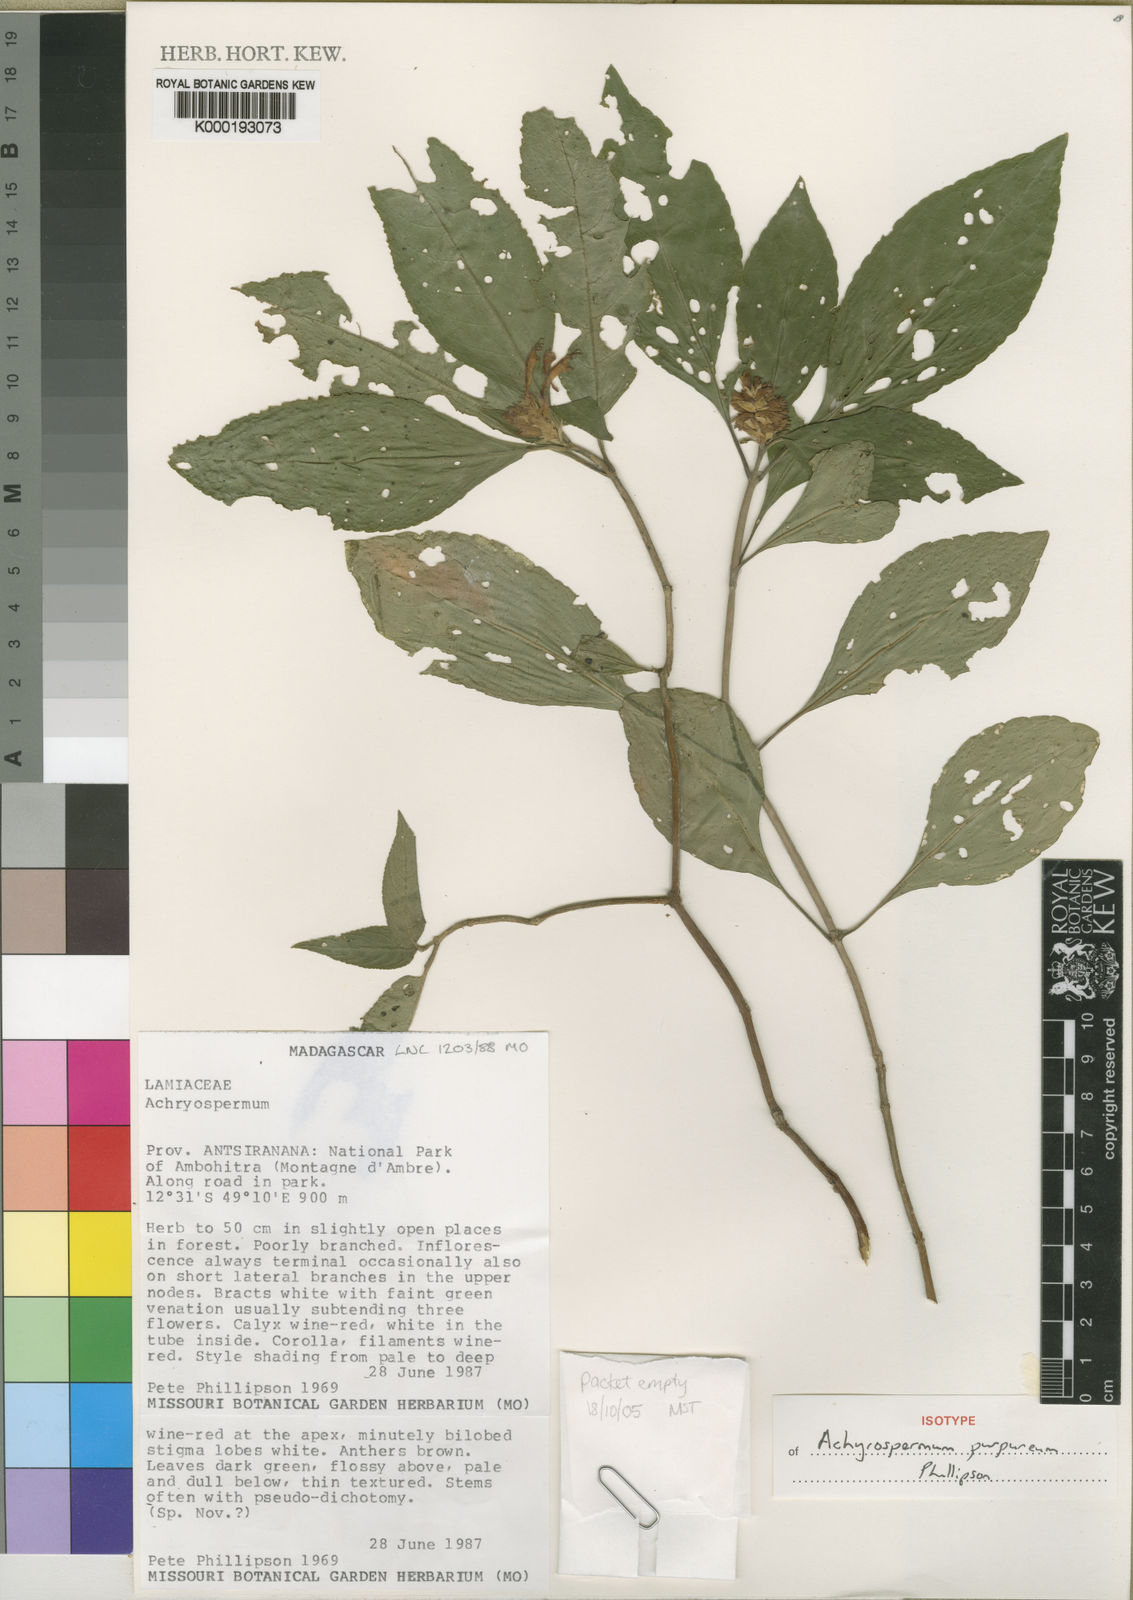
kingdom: Plantae
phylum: Tracheophyta
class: Magnoliopsida
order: Lamiales
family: Lamiaceae
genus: Achyrospermum
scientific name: Achyrospermum purpureum
